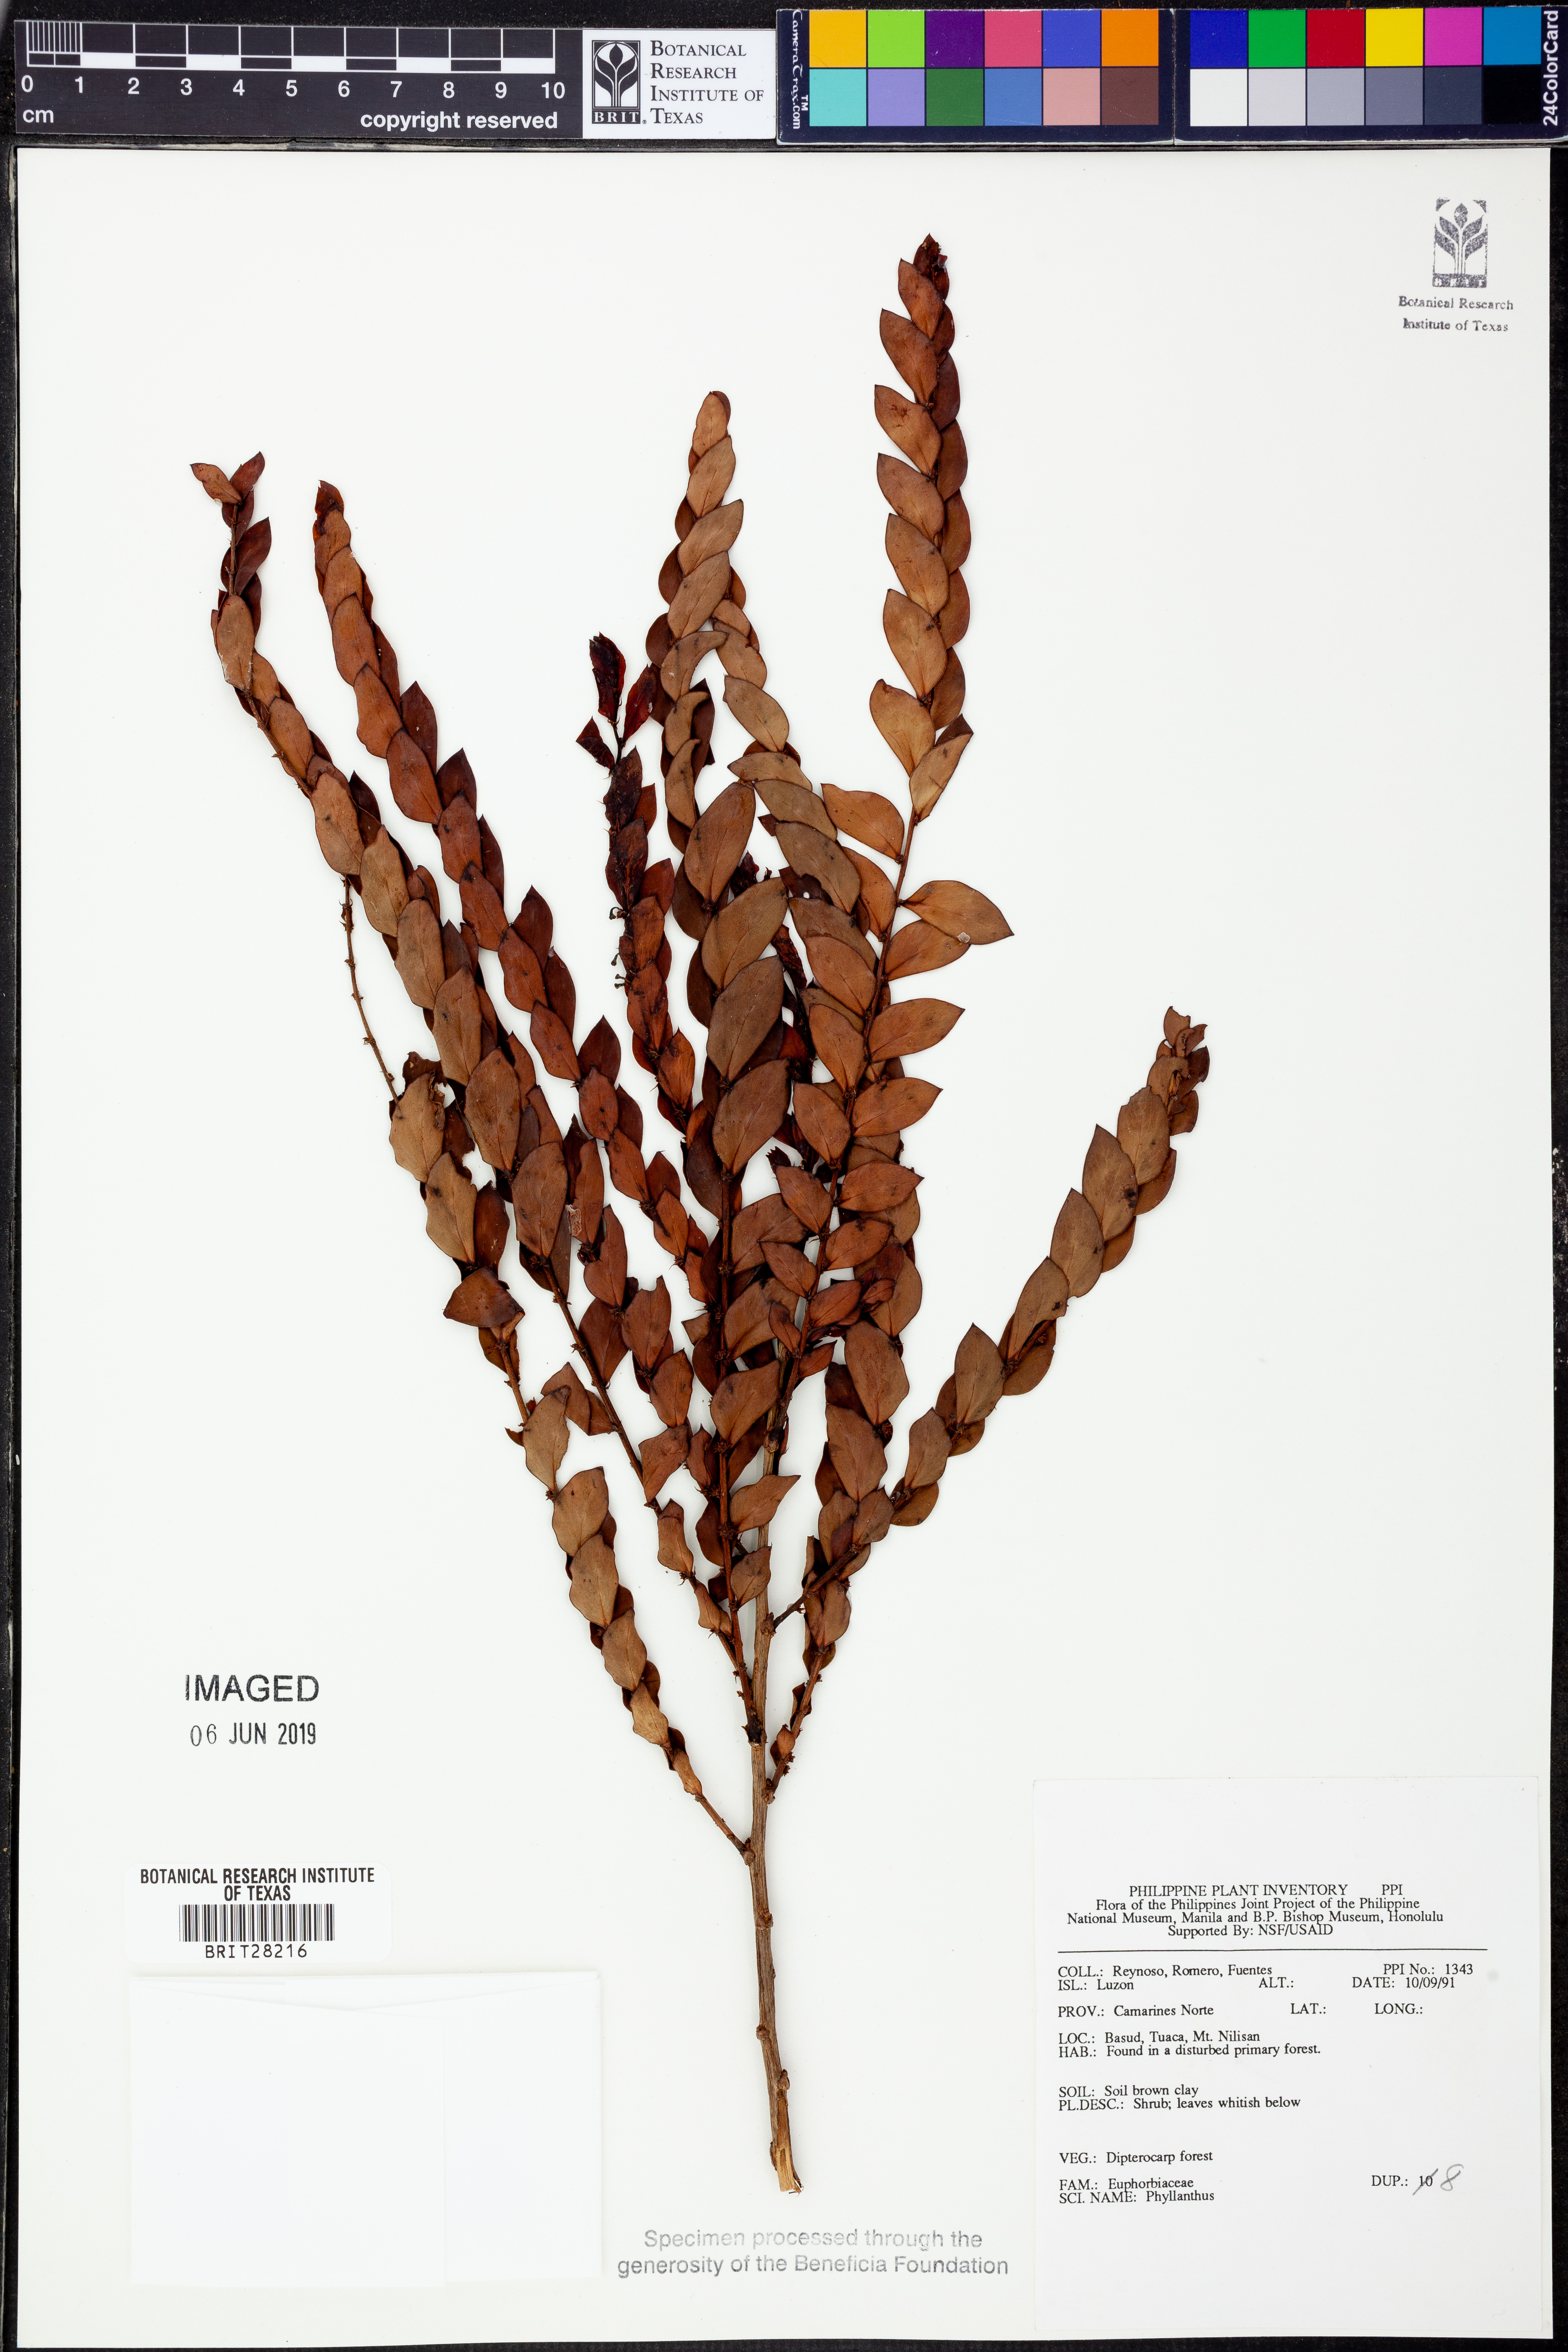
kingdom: Plantae
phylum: Tracheophyta
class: Magnoliopsida
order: Malpighiales
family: Phyllanthaceae
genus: Phyllanthus
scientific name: Phyllanthus
